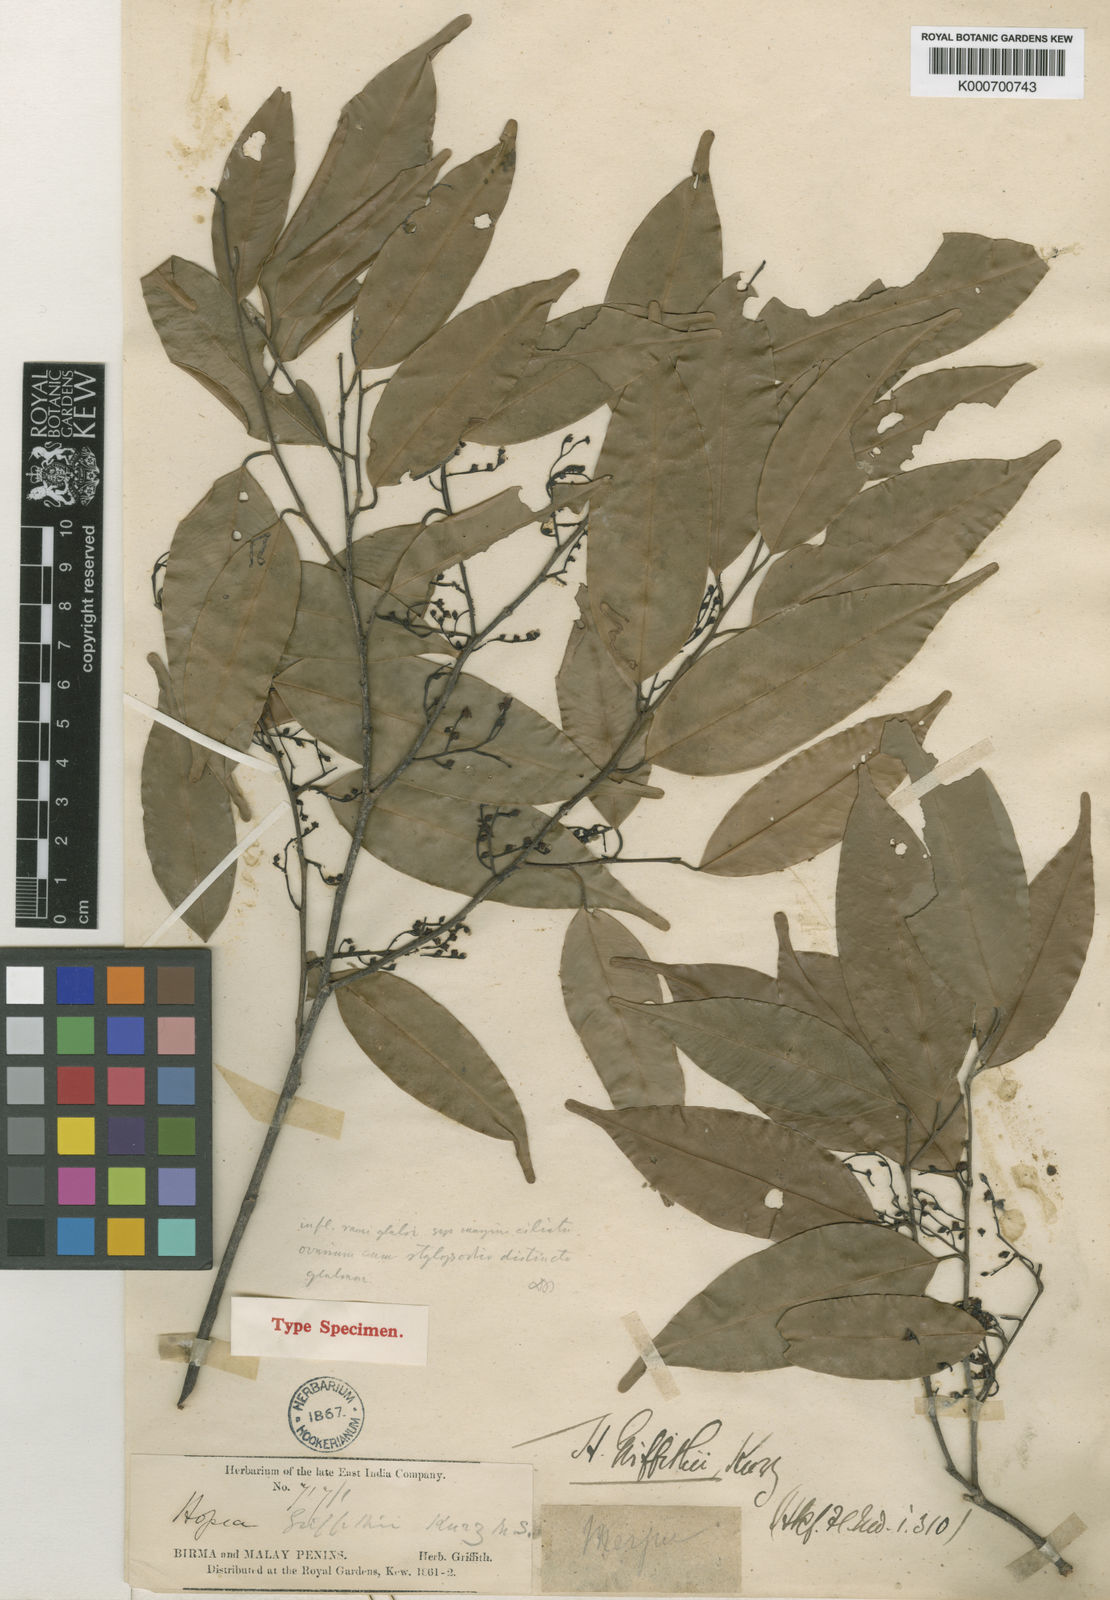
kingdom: Plantae
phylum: Tracheophyta
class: Magnoliopsida
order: Malvales
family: Dipterocarpaceae
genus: Hopea
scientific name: Hopea griffithii
